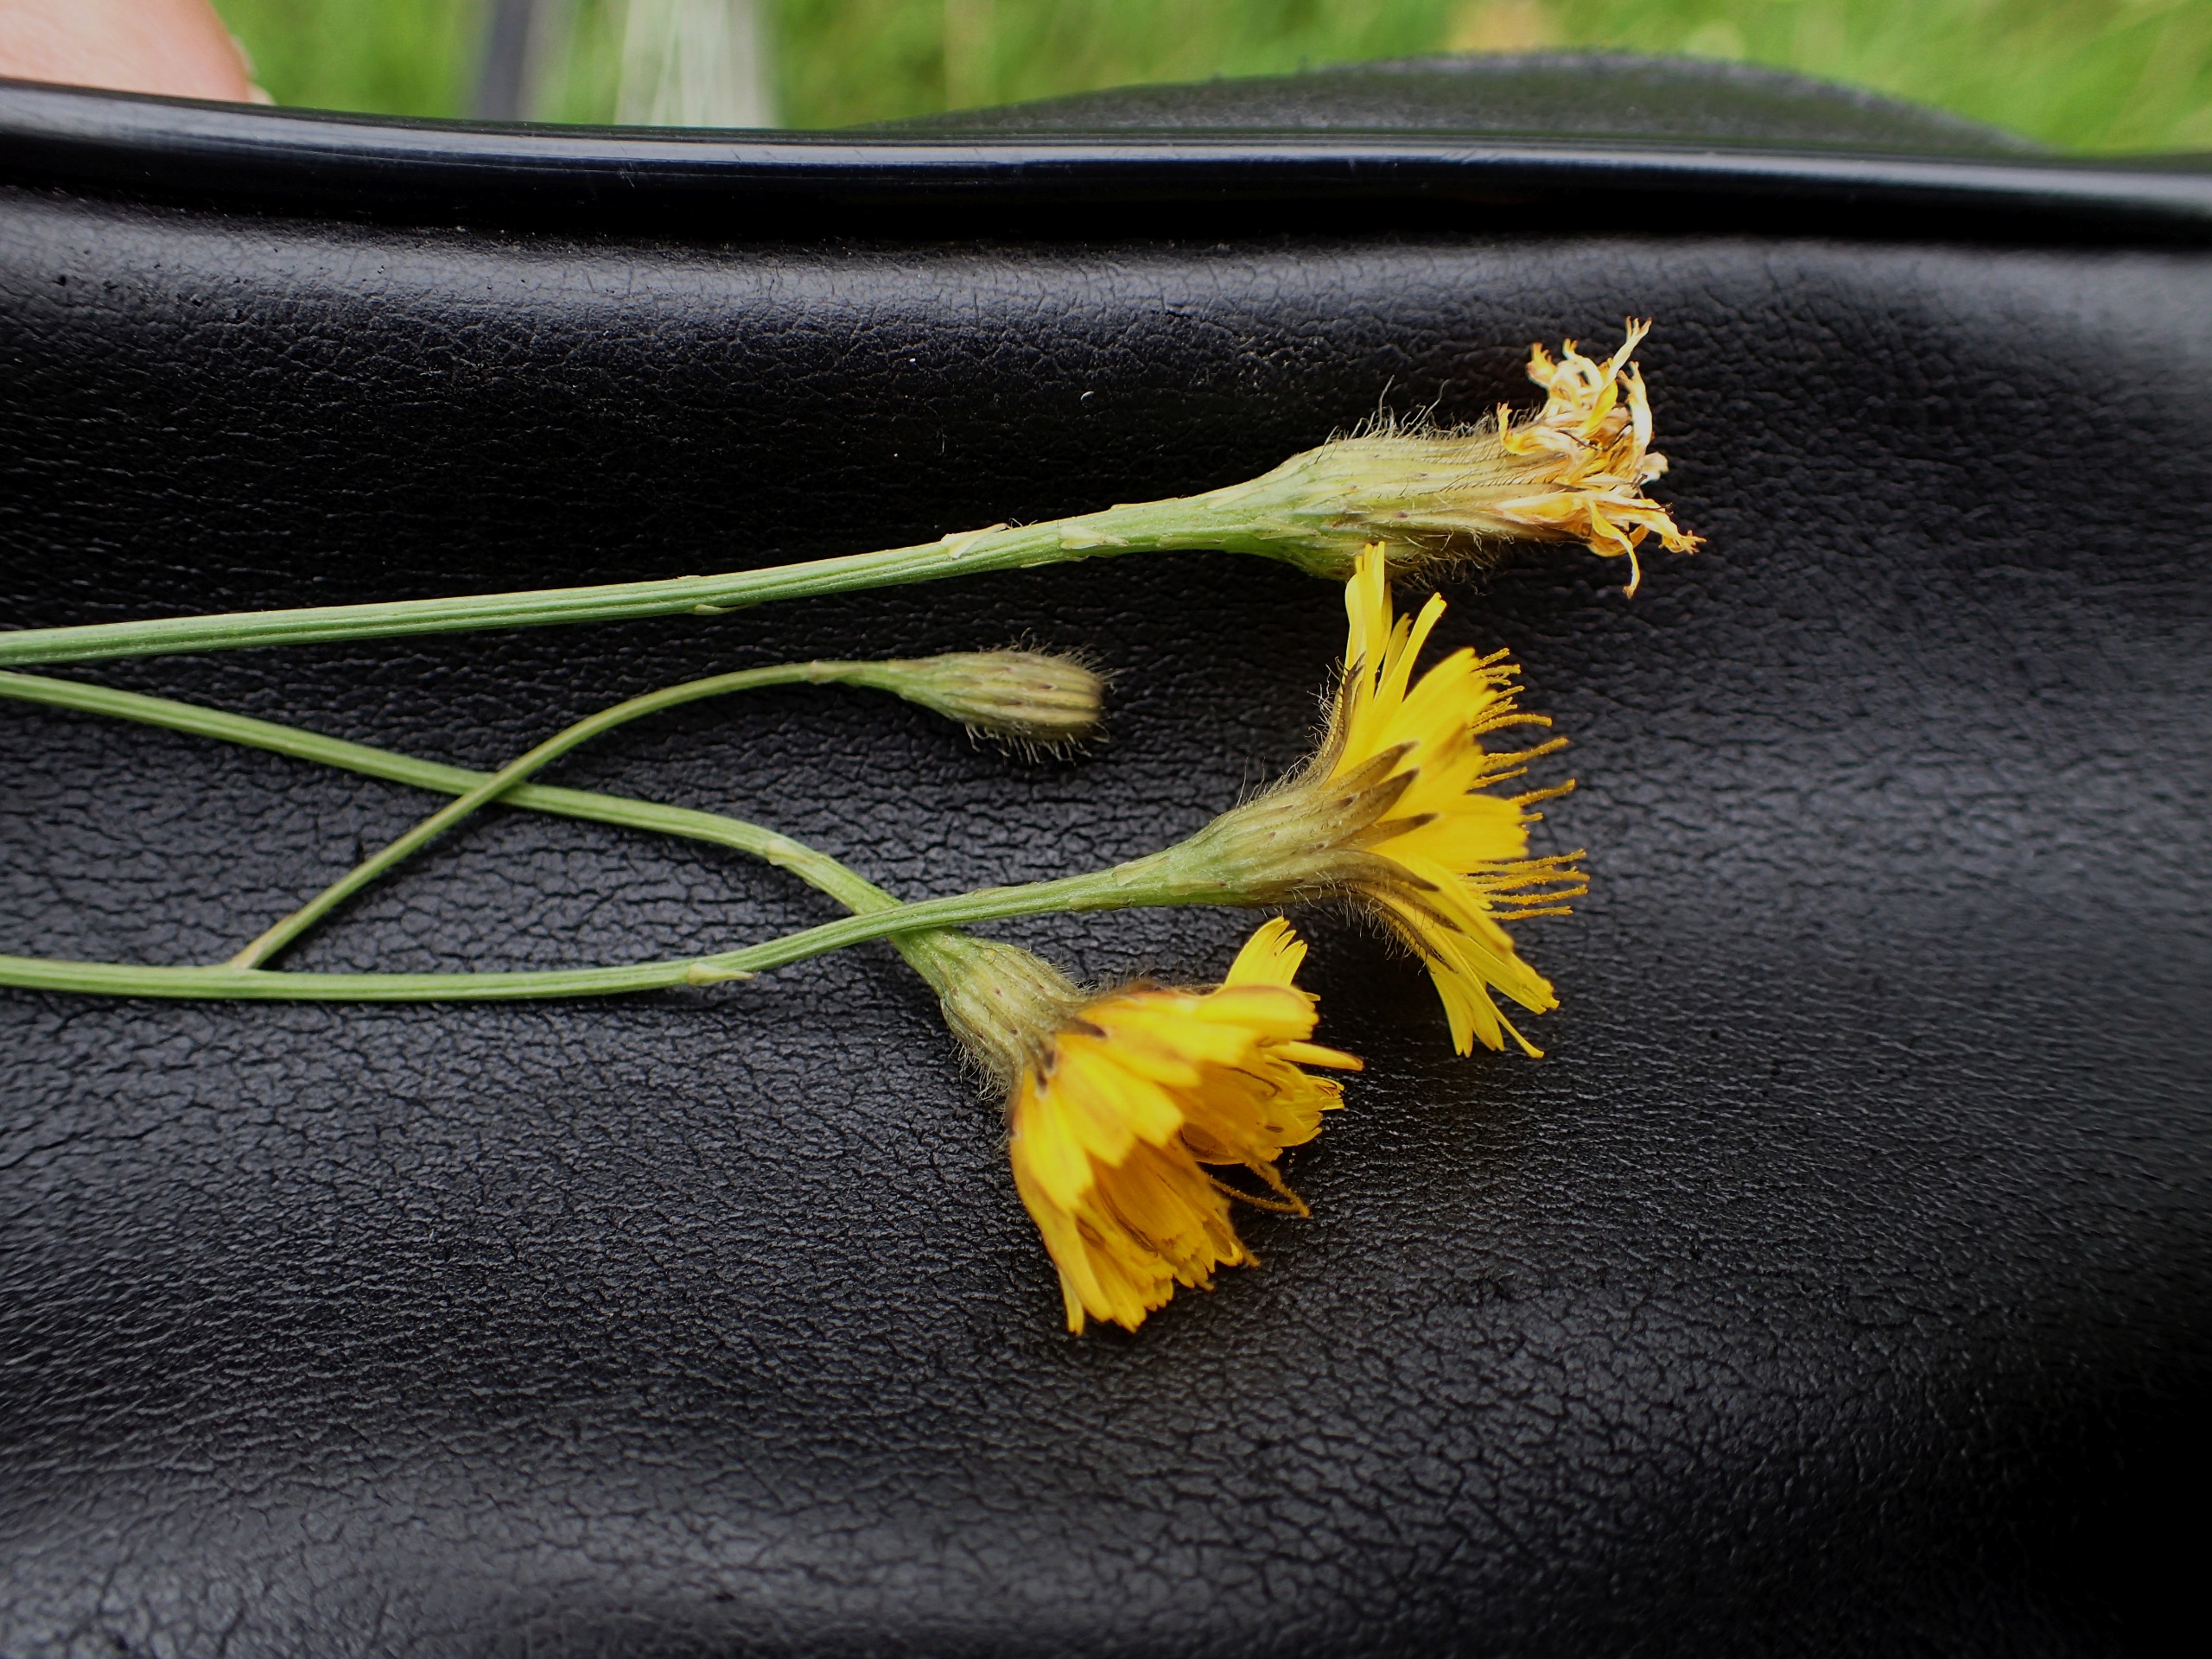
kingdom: Plantae
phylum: Tracheophyta
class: Magnoliopsida
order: Asterales
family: Asteraceae
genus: Scorzoneroides
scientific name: Scorzoneroides autumnalis
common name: Høst-borst
